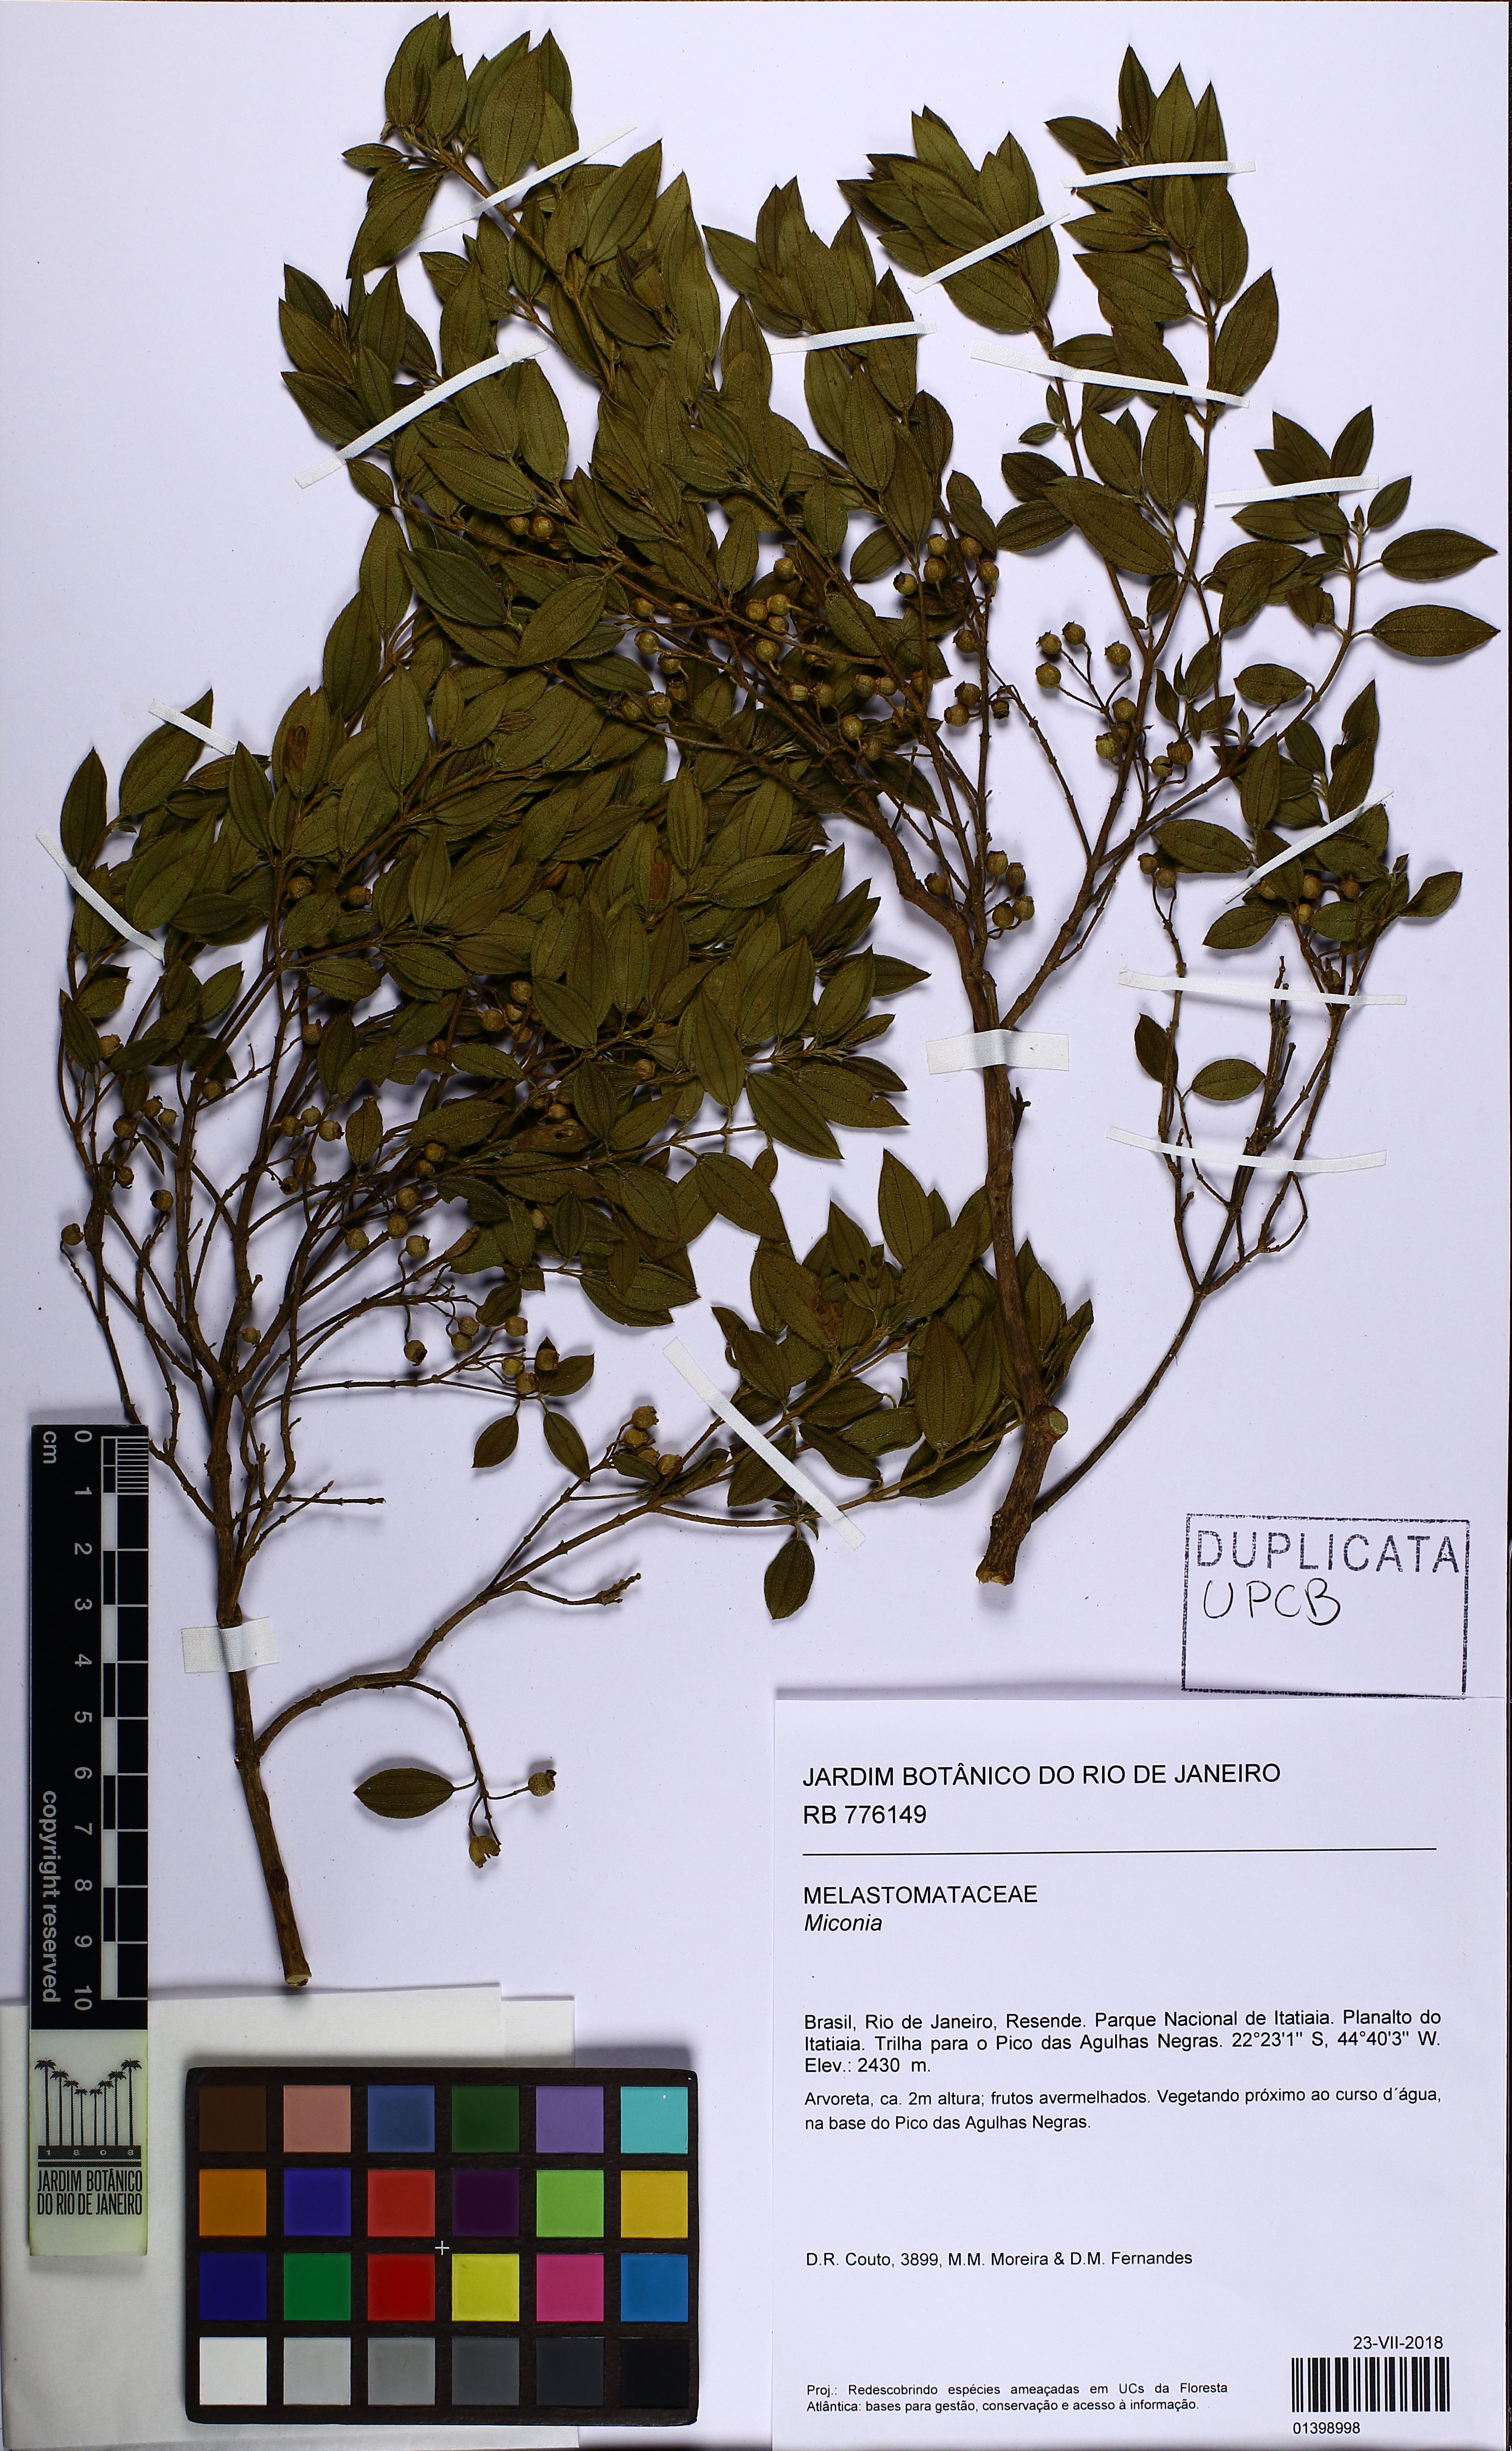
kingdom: Plantae
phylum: Tracheophyta
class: Magnoliopsida
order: Myrtales
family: Melastomataceae
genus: Pleroma
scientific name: Pleroma hospitum
